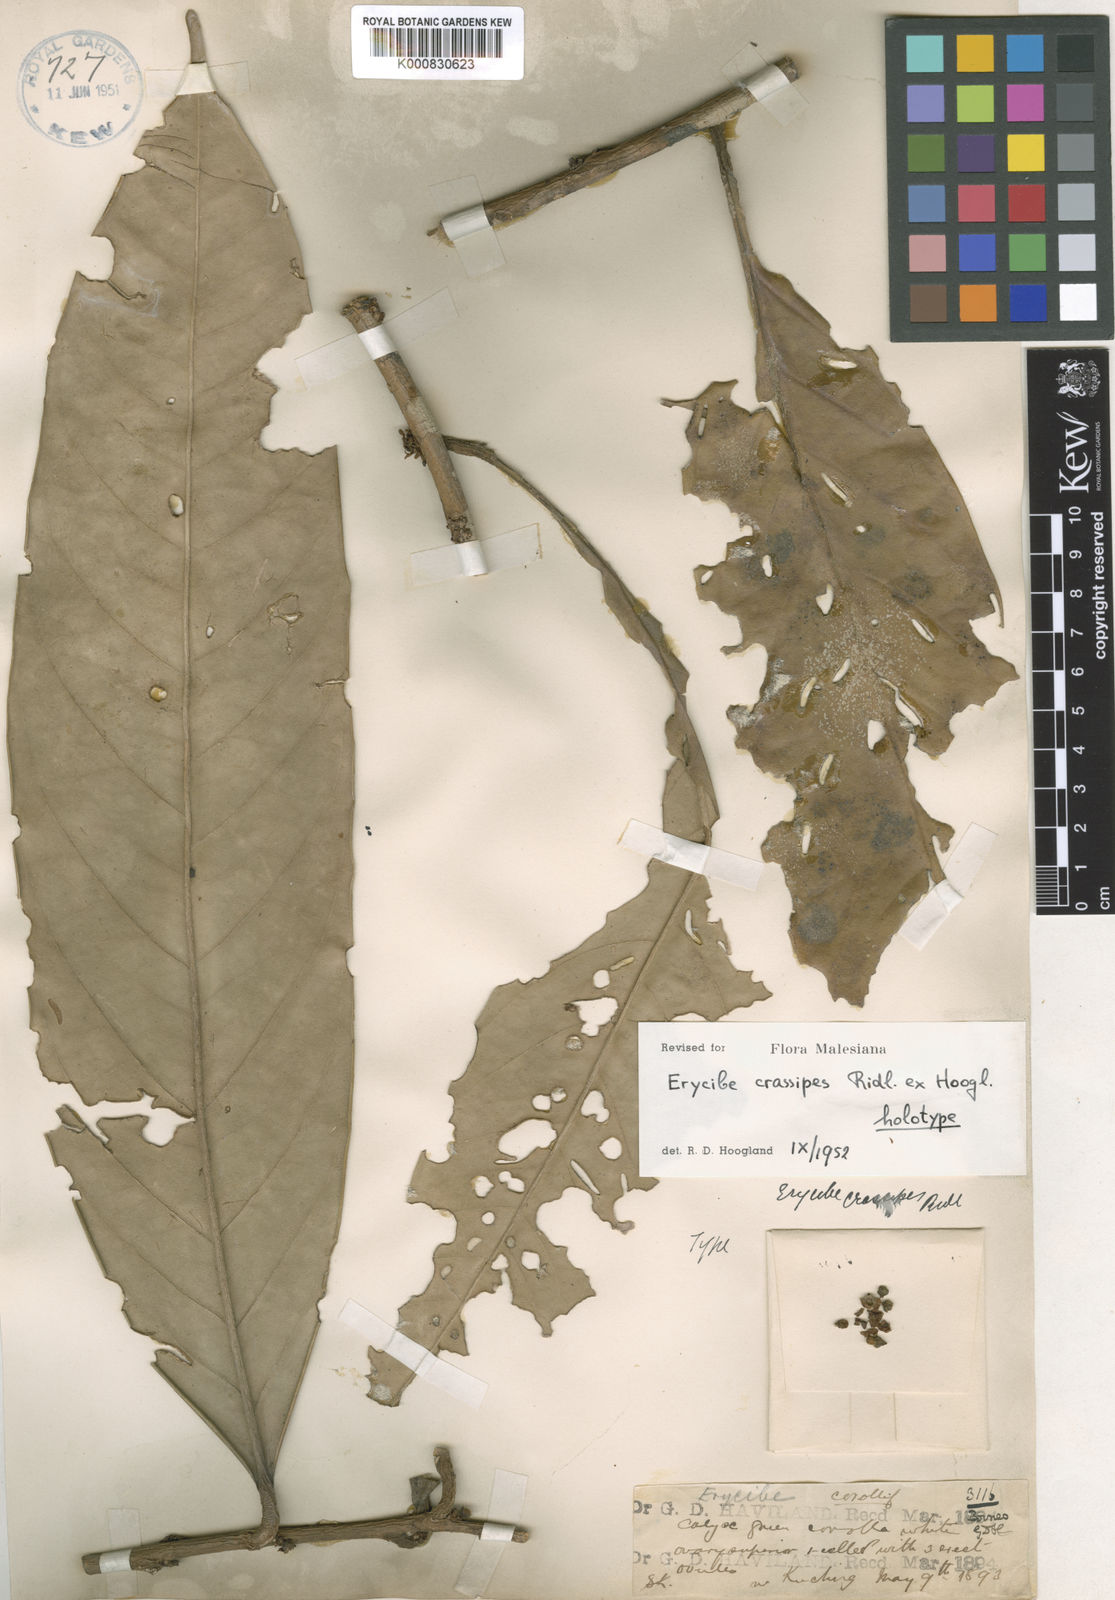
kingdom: Plantae
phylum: Tracheophyta
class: Magnoliopsida
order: Solanales
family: Convolvulaceae
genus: Erycibe
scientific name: Erycibe crassipes
